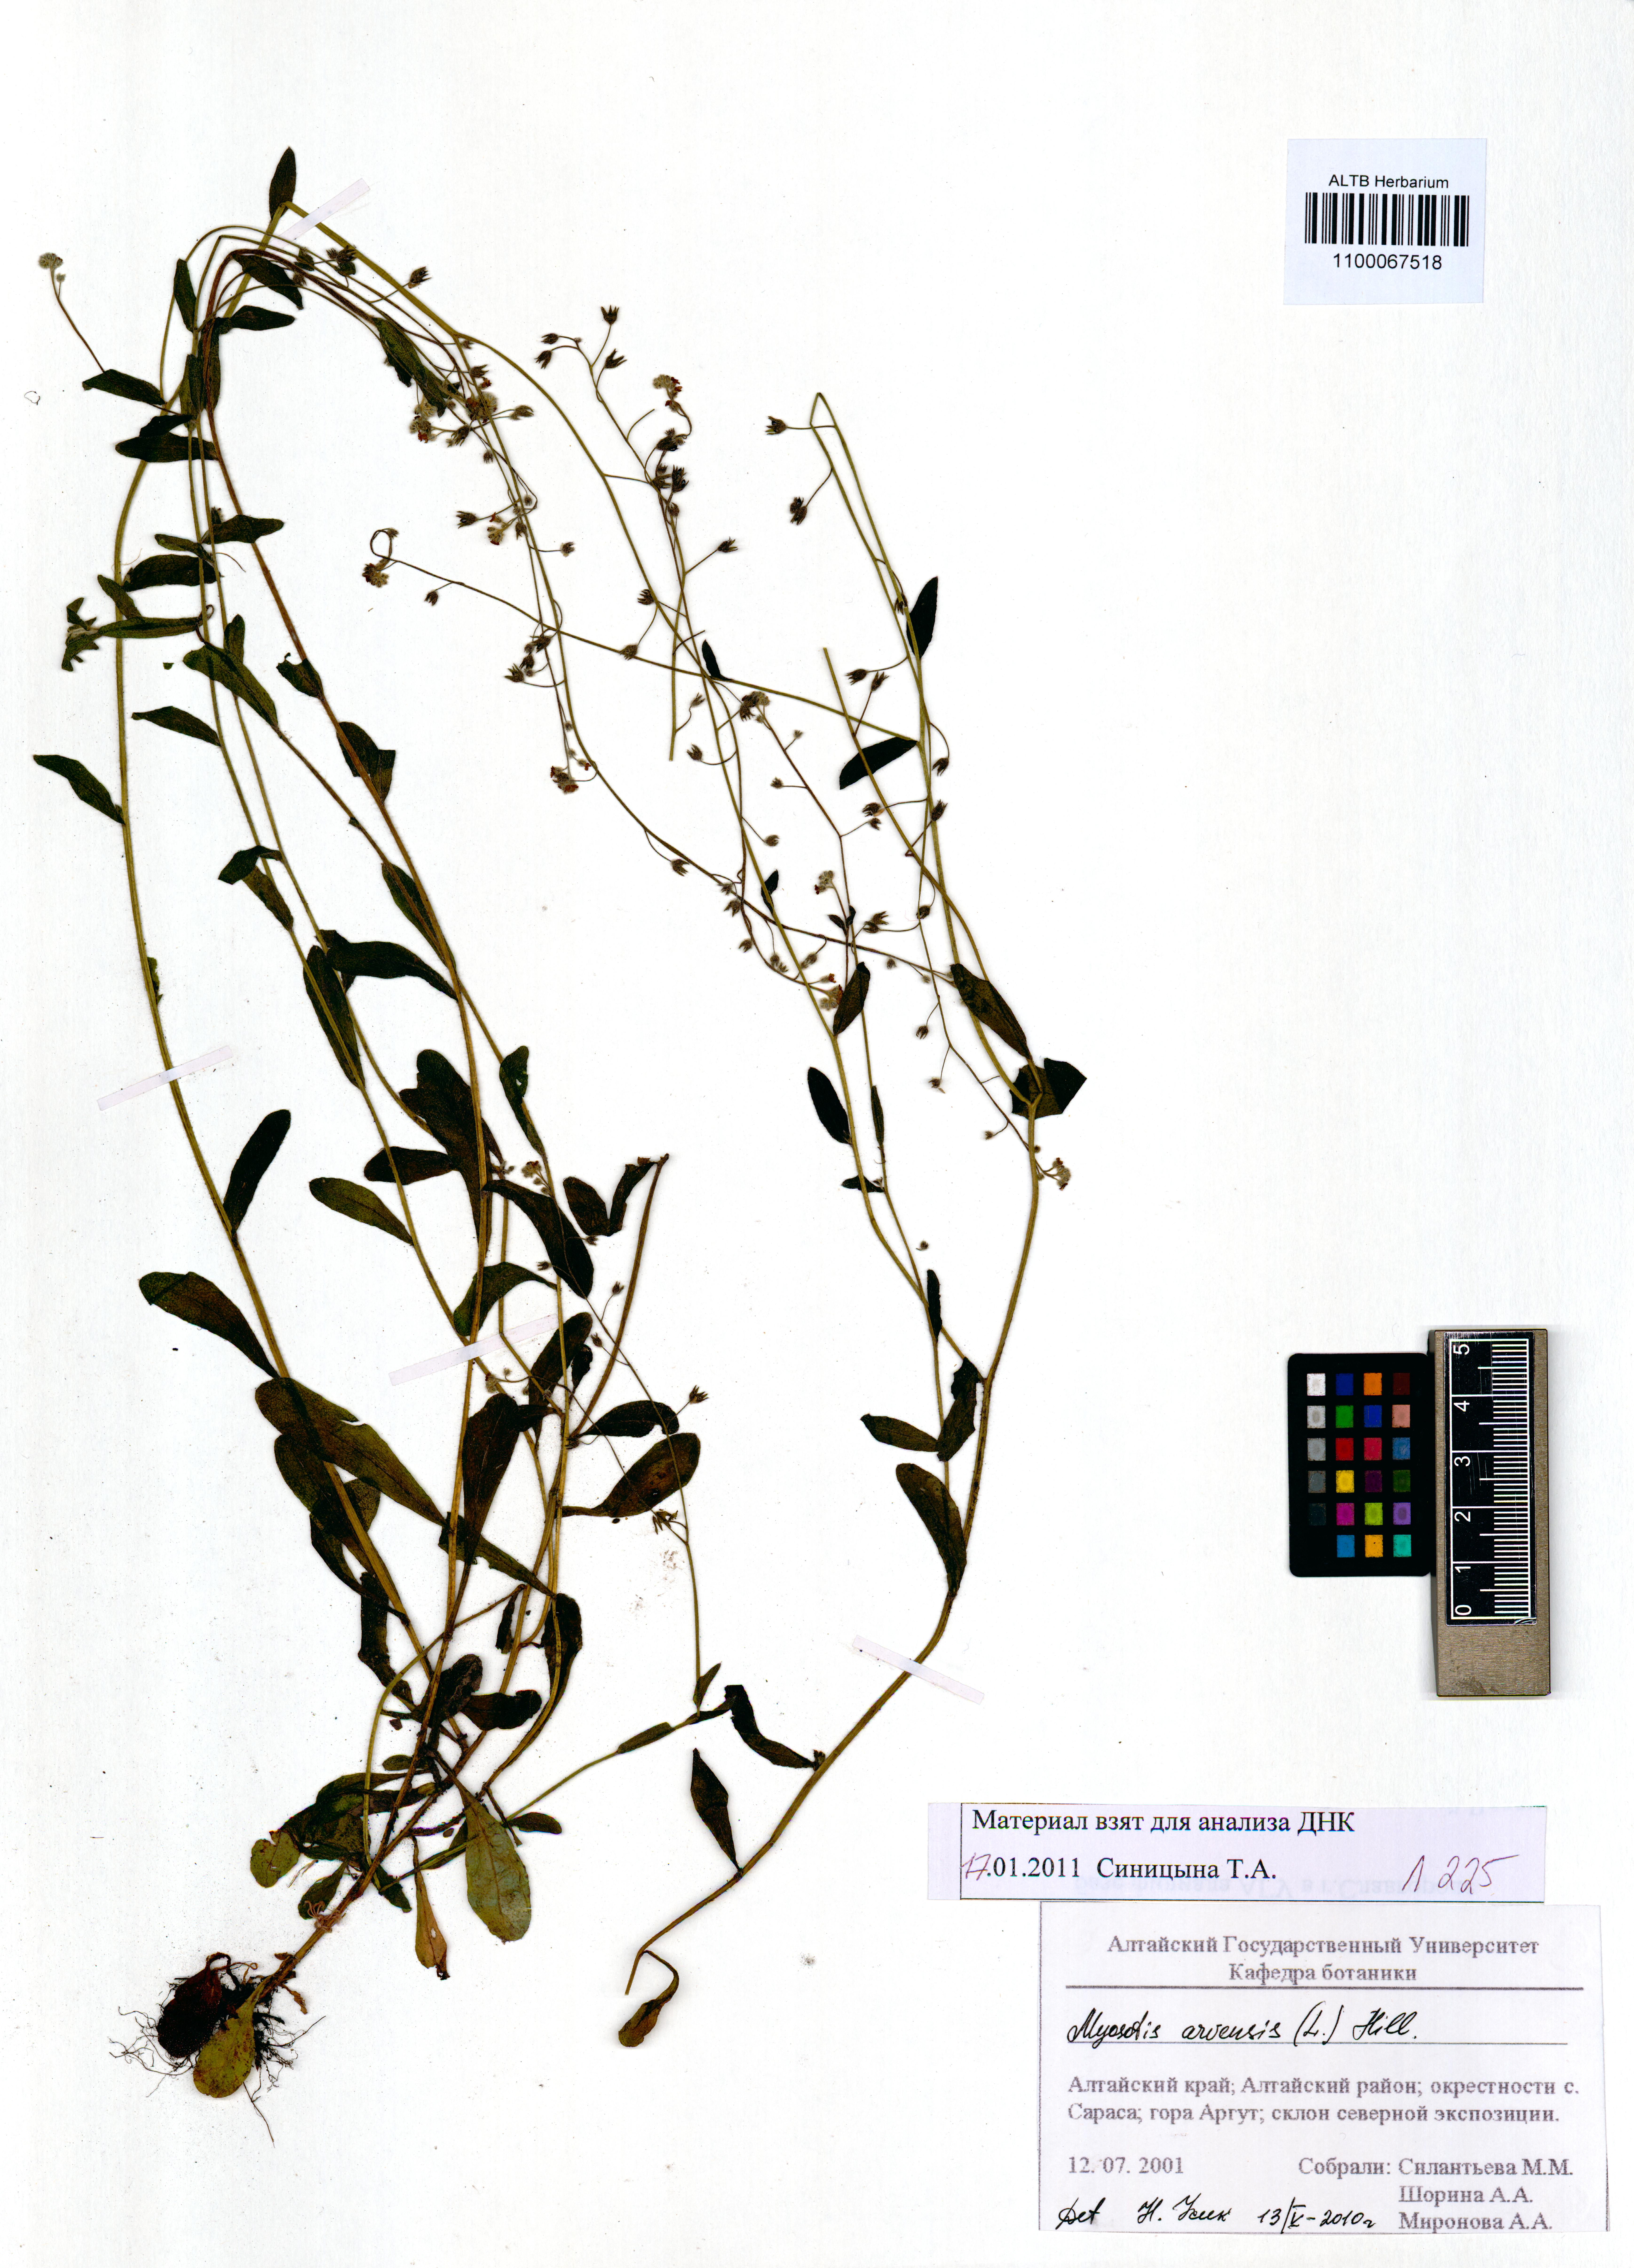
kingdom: Plantae
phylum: Tracheophyta
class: Magnoliopsida
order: Boraginales
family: Boraginaceae
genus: Myosotis
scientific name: Myosotis arvensis
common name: Field forget-me-not
